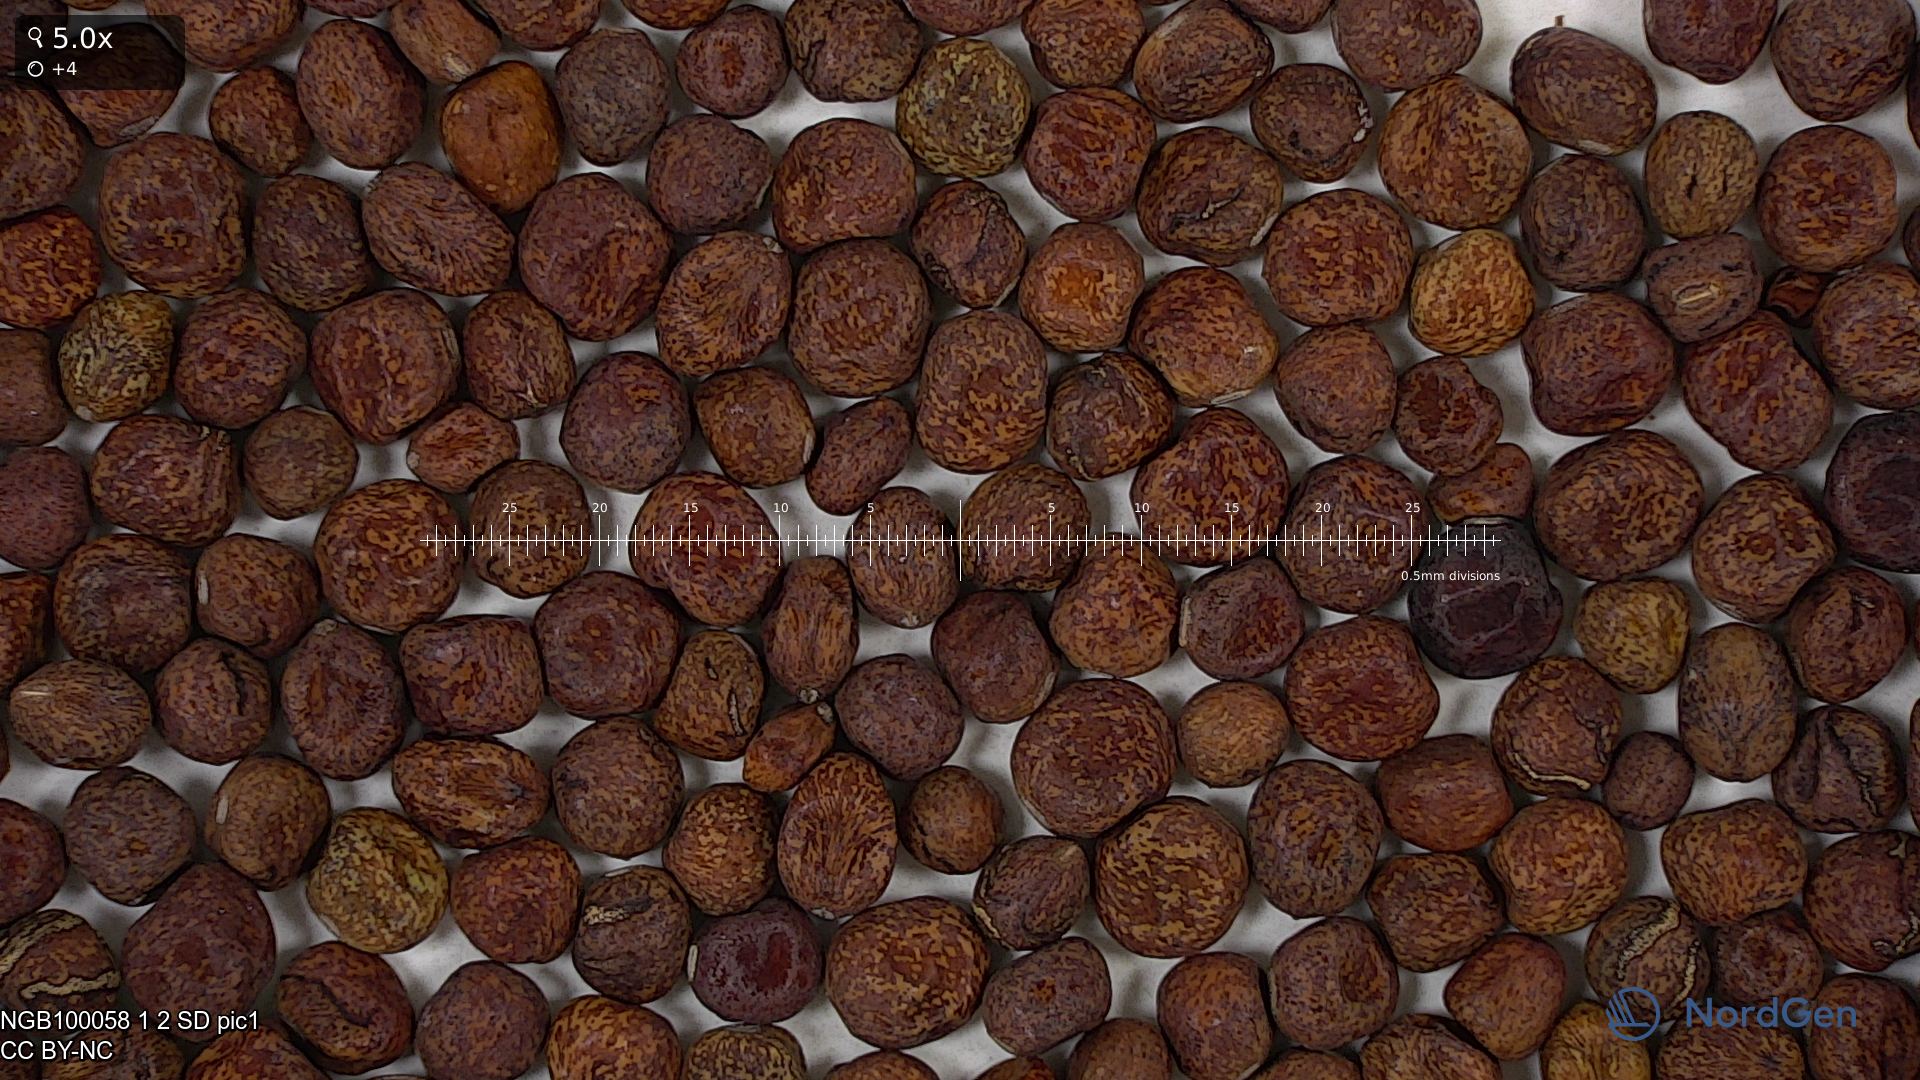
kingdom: Plantae
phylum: Tracheophyta
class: Magnoliopsida
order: Fabales
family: Fabaceae
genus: Lathyrus
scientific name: Lathyrus oleraceus
